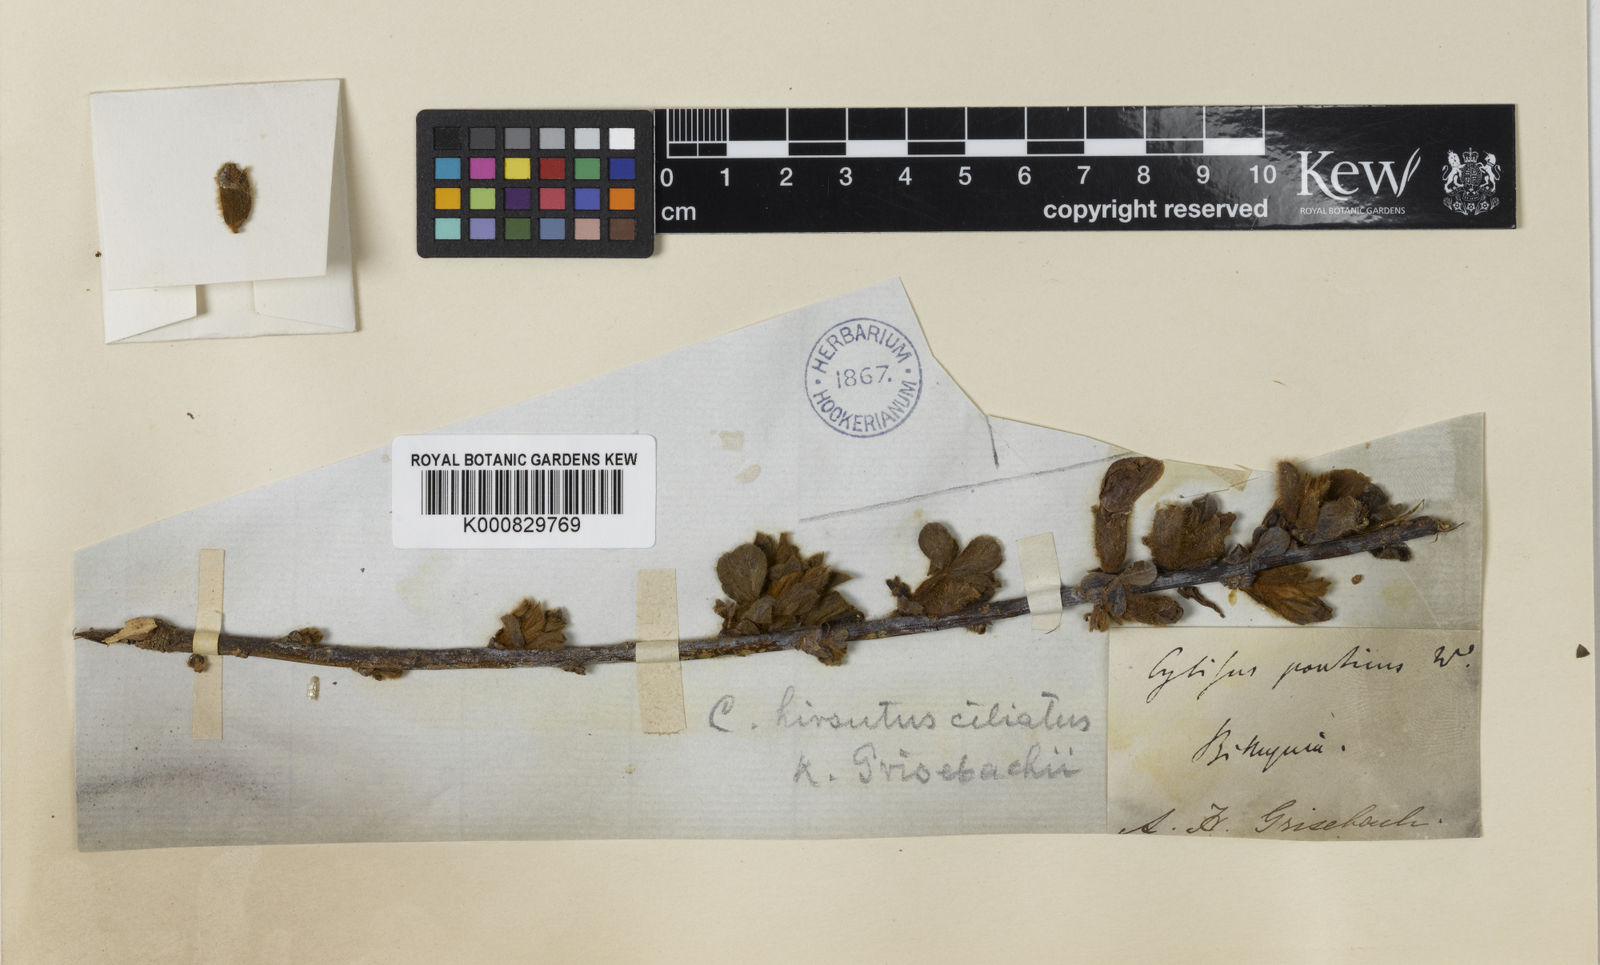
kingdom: Plantae
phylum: Tracheophyta
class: Magnoliopsida
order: Fabales
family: Fabaceae
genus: Cytisus
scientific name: Cytisus
